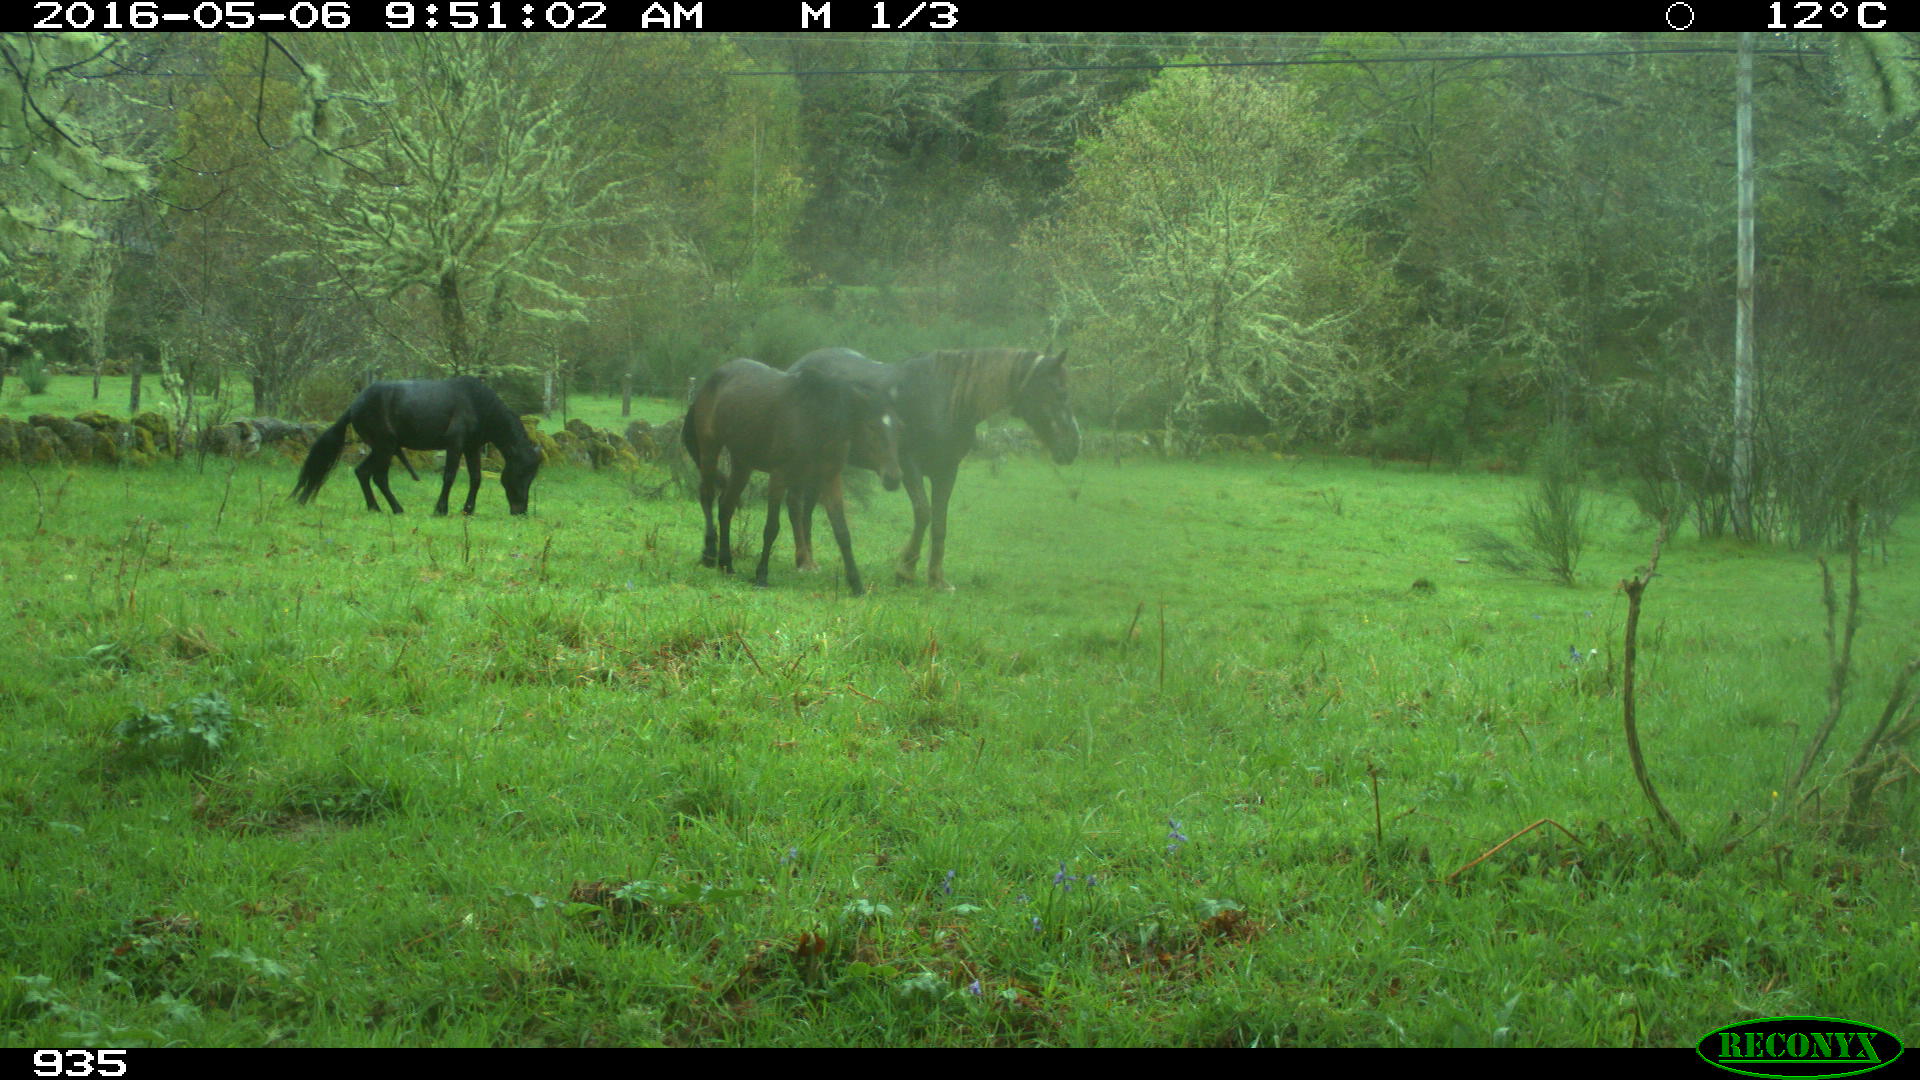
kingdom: Animalia
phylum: Chordata
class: Mammalia
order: Perissodactyla
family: Equidae
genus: Equus
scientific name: Equus caballus
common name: Horse
